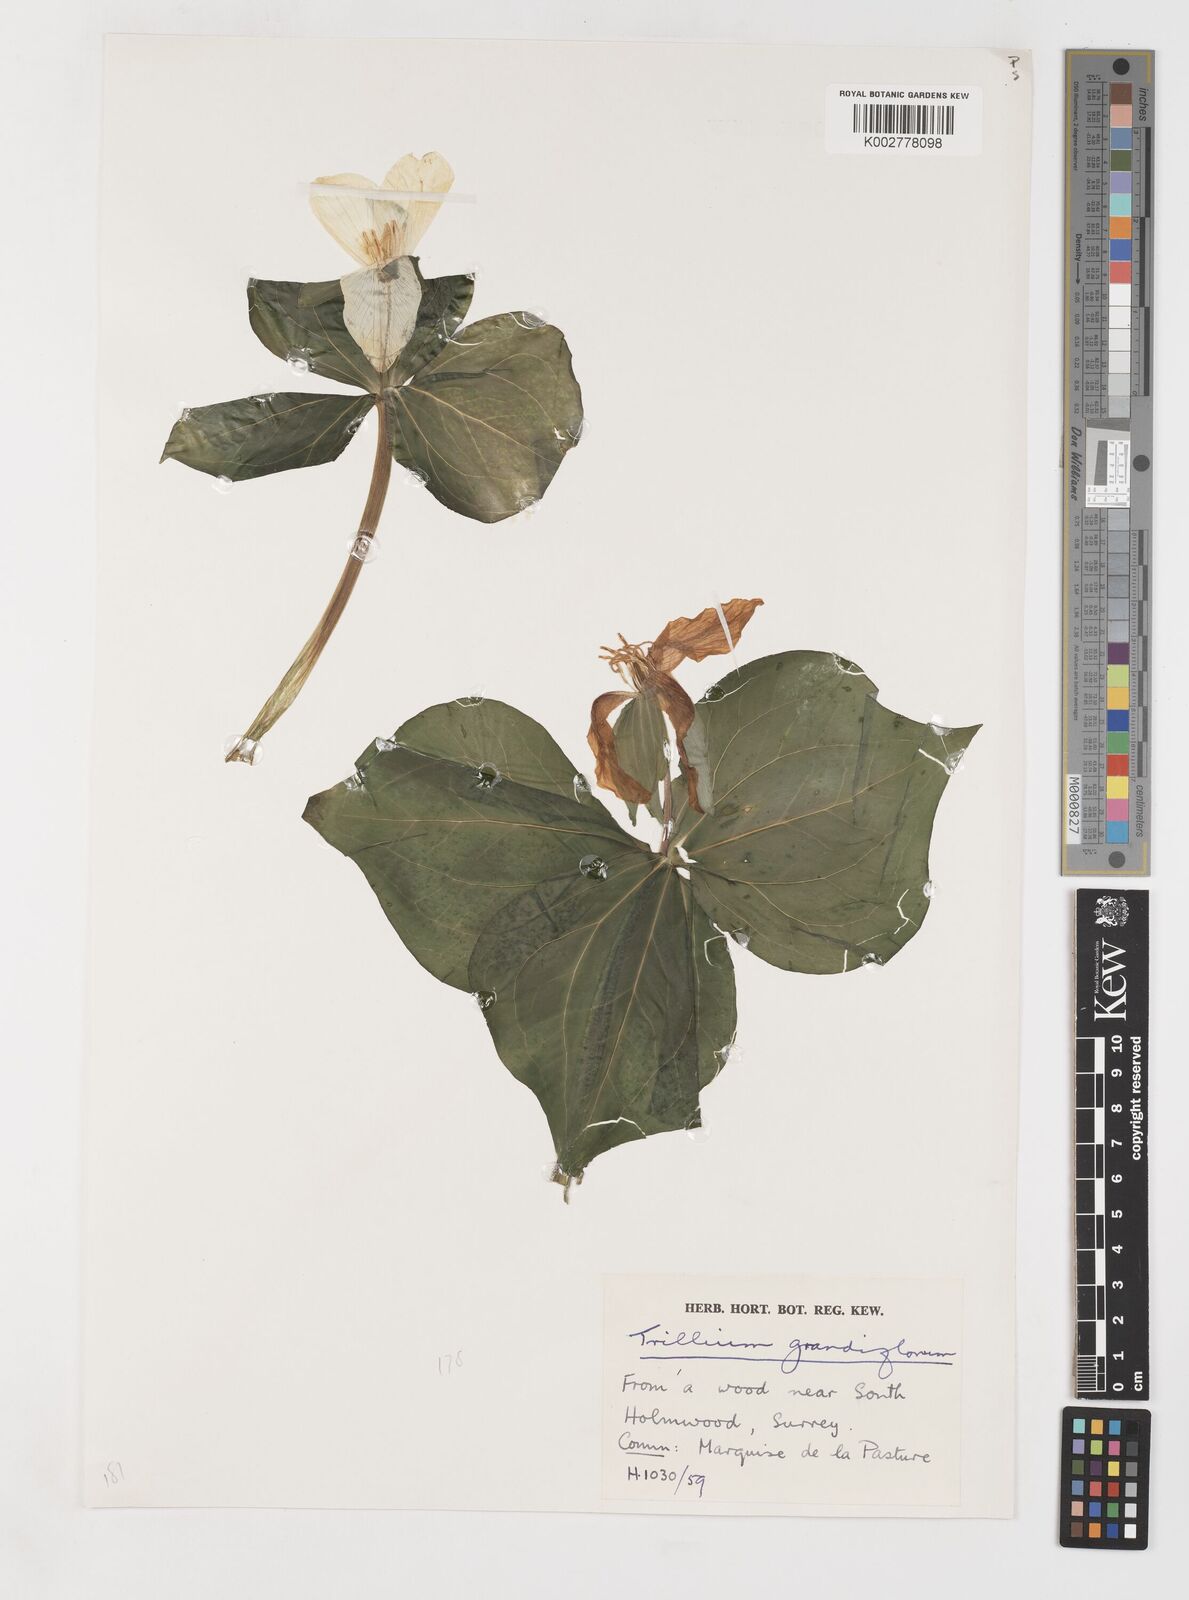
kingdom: Plantae
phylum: Tracheophyta
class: Liliopsida
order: Liliales
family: Melanthiaceae
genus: Trillium
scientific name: Trillium grandiflorum
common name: Great white trillium
